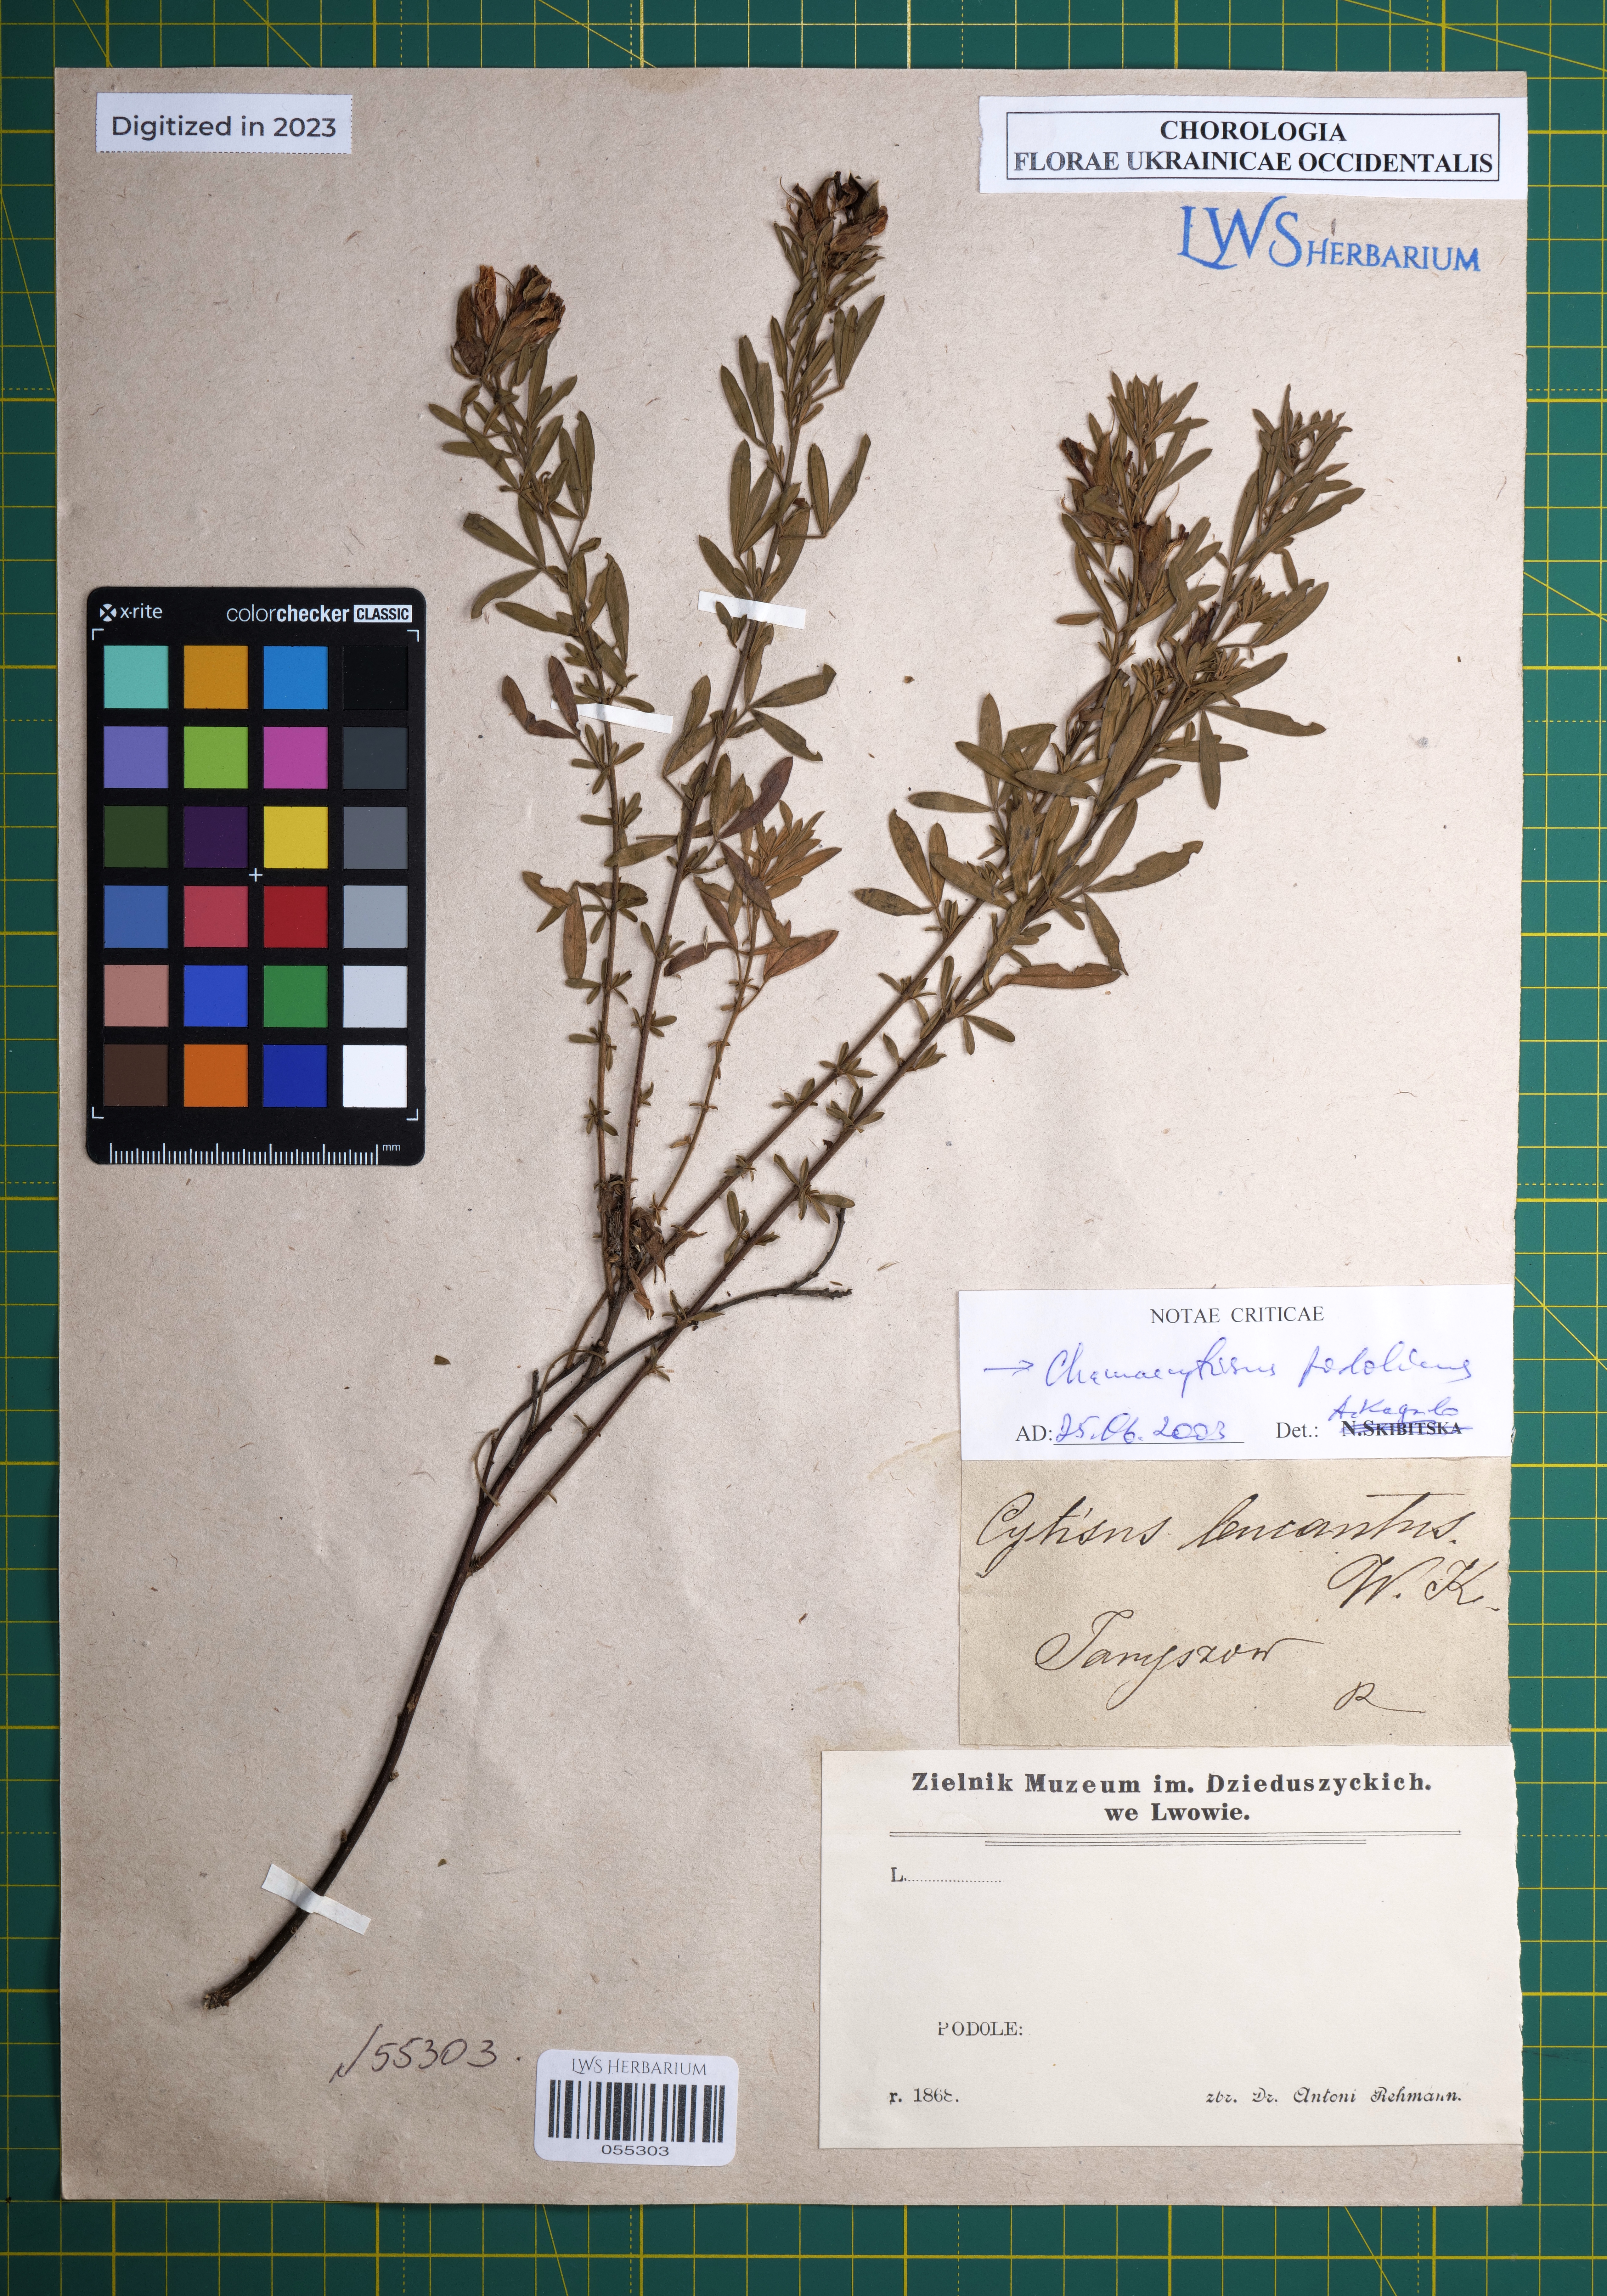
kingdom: Plantae
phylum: Tracheophyta
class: Magnoliopsida
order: Fabales
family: Fabaceae
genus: Chamaecytisus
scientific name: Chamaecytisus albus
